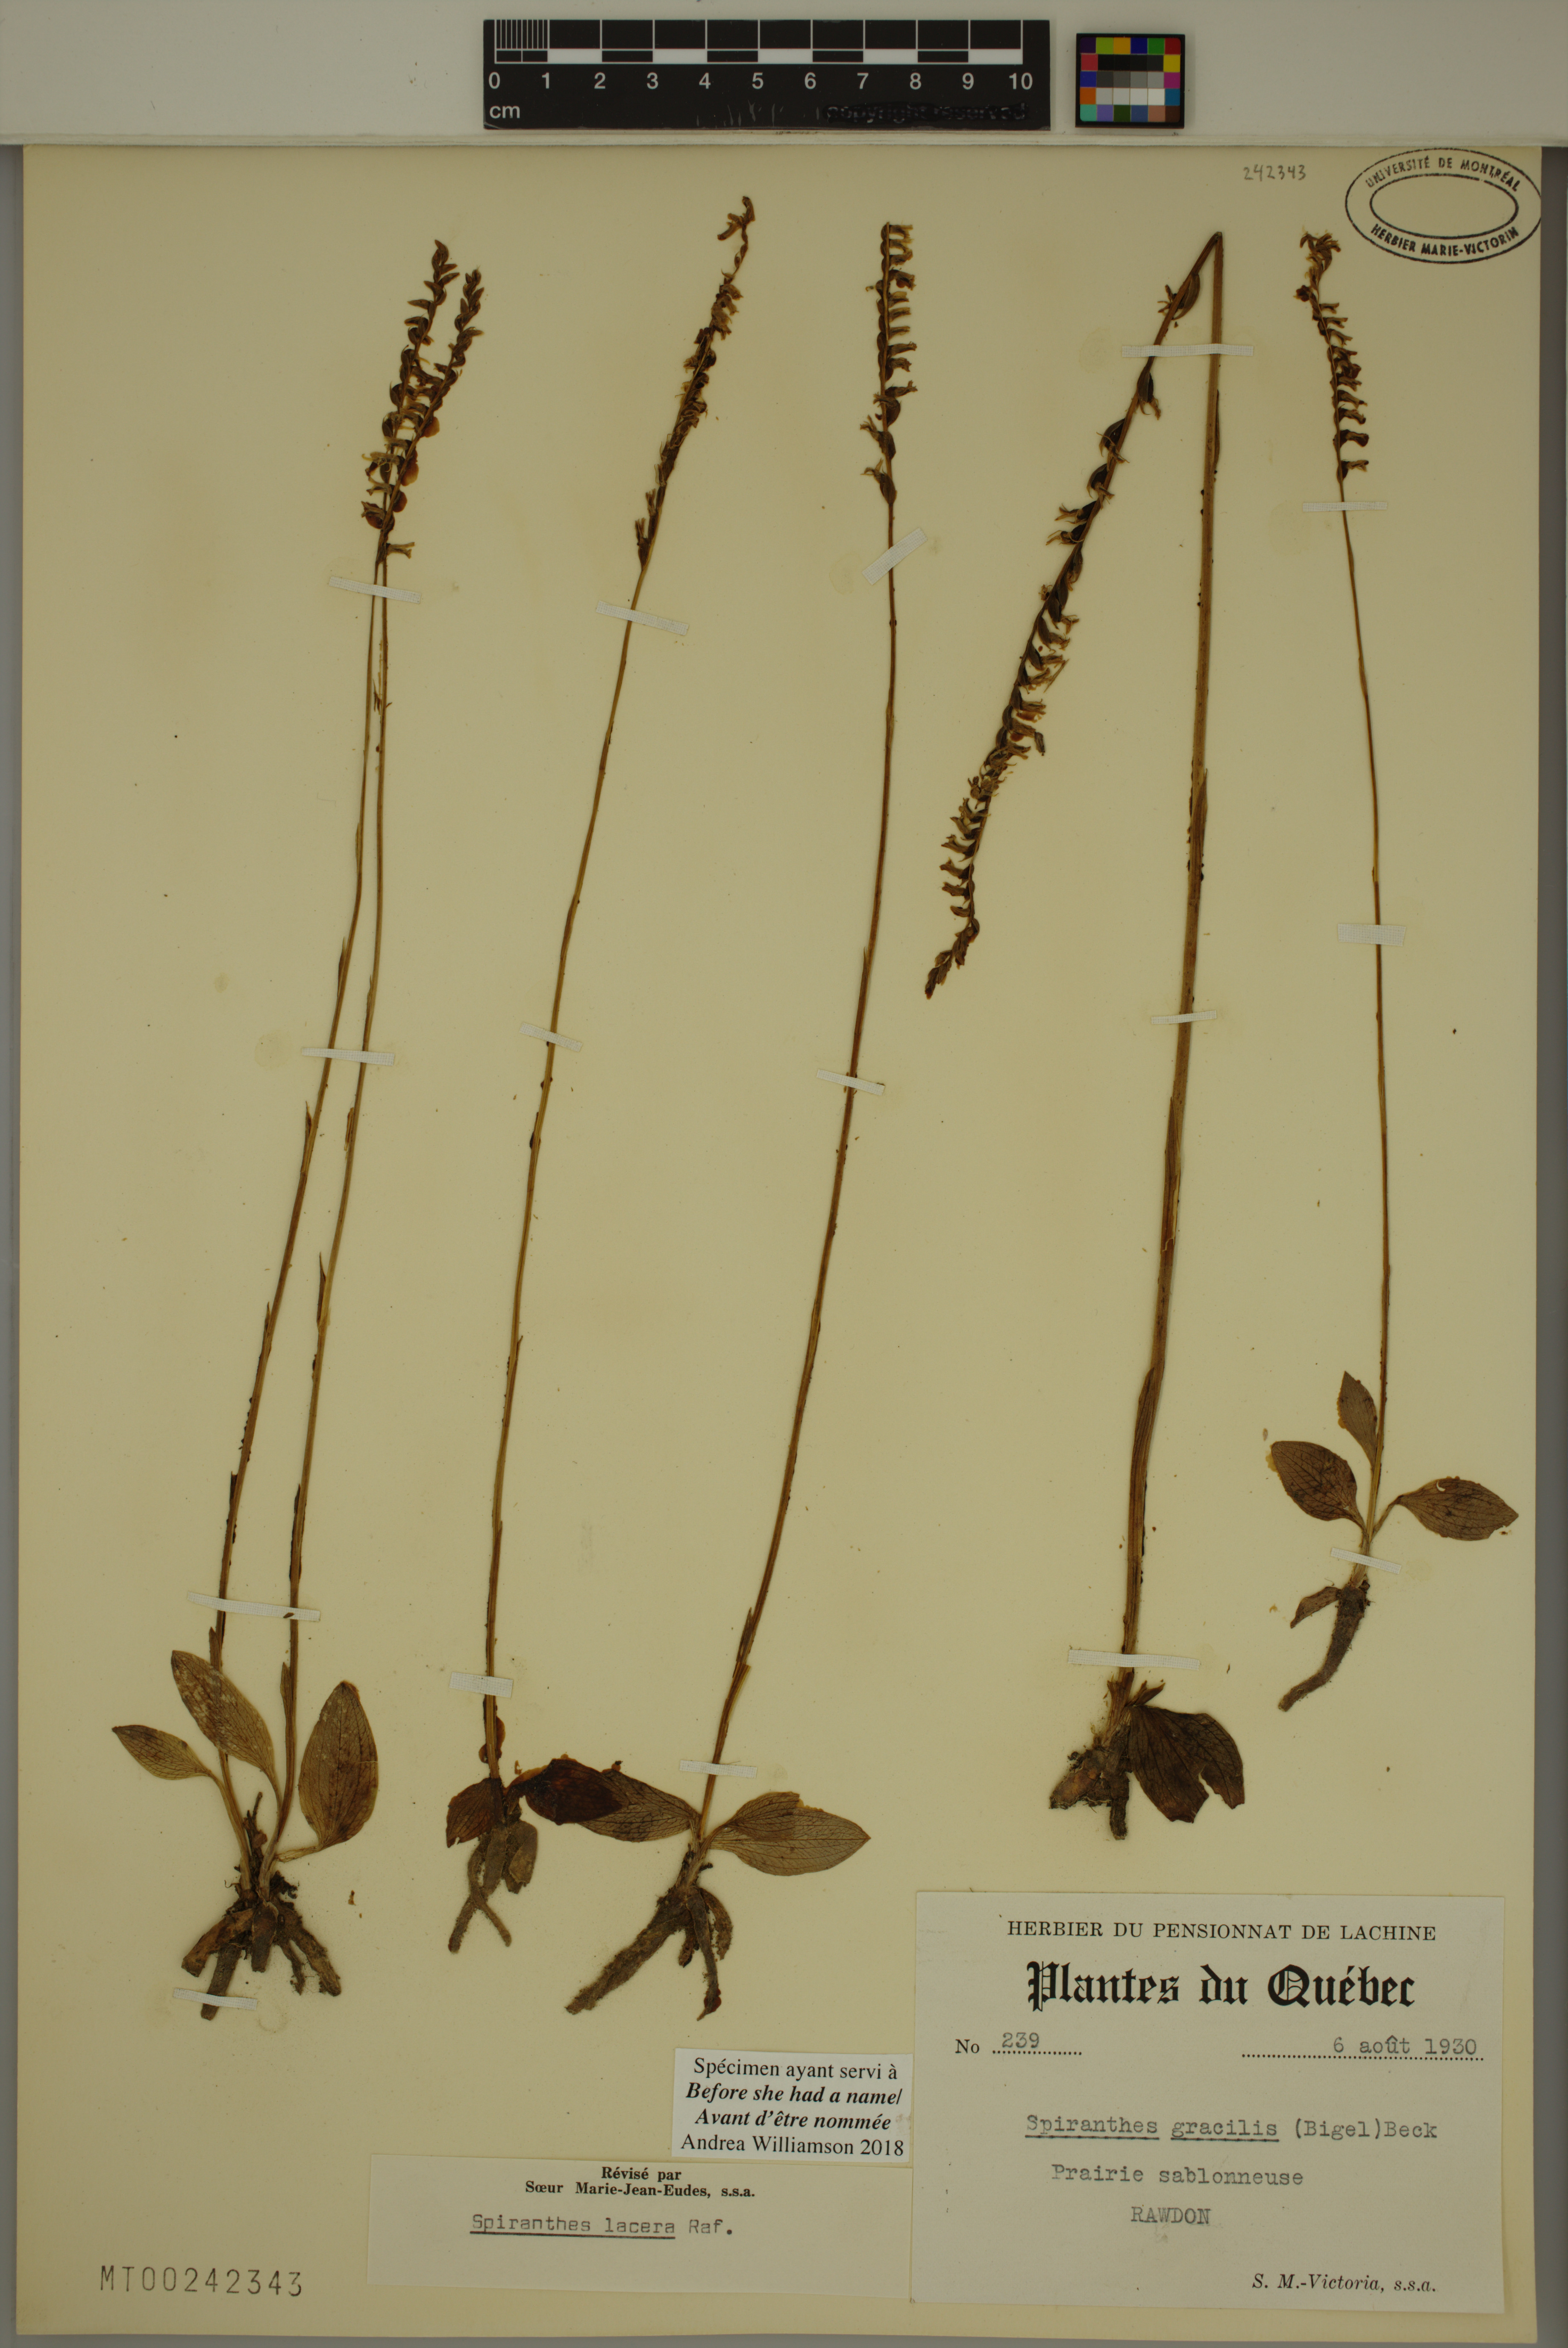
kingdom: Plantae
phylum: Tracheophyta
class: Liliopsida
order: Asparagales
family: Orchidaceae
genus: Spiranthes
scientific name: Spiranthes lacera
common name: Northern slender ladies'-tresses
